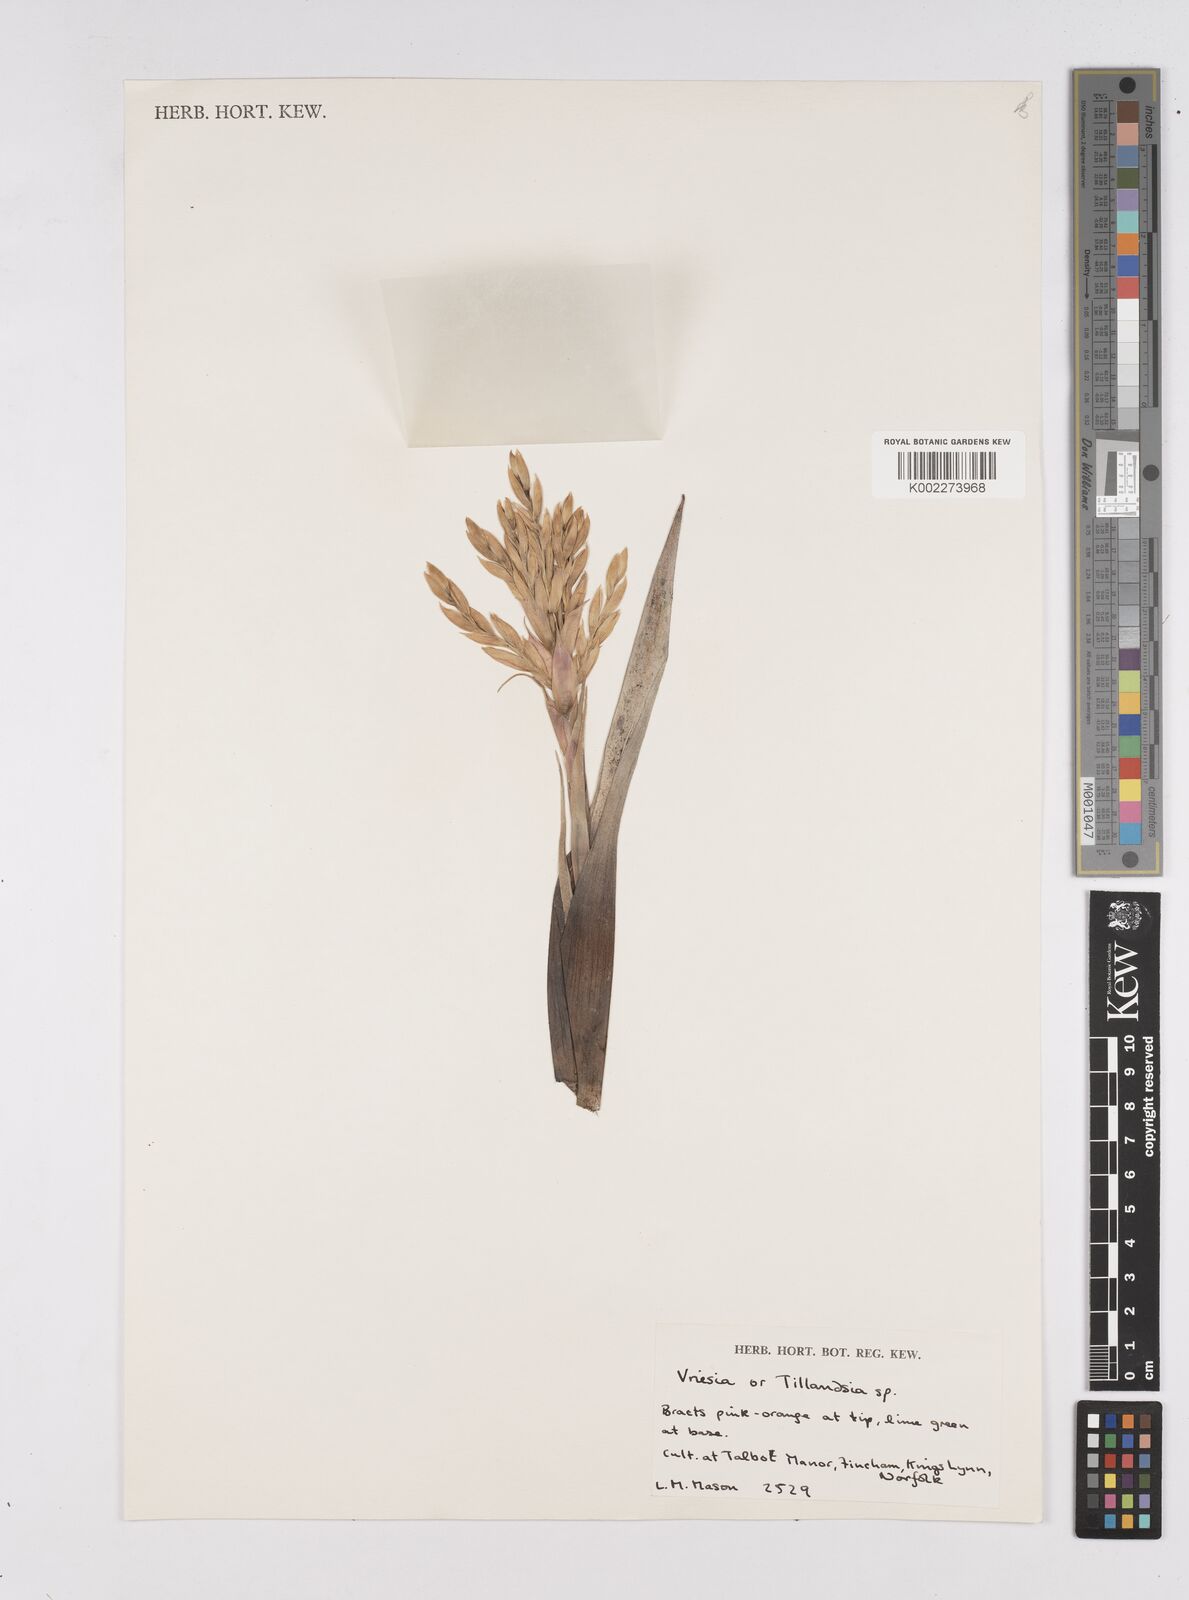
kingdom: Plantae
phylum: Tracheophyta
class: Liliopsida
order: Poales
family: Bromeliaceae
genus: Tillandsia
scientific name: Tillandsia
